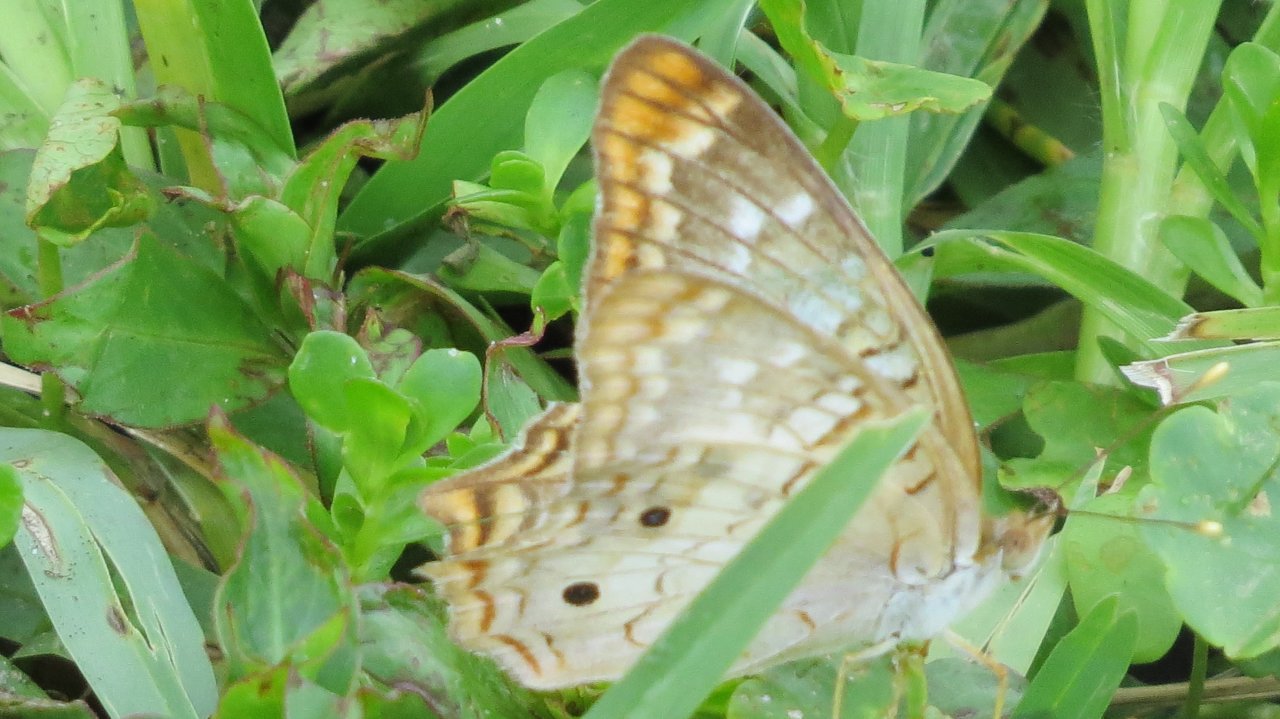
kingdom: Animalia
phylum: Arthropoda
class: Insecta
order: Lepidoptera
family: Nymphalidae
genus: Anartia
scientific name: Anartia jatrophae
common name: White Peacock
